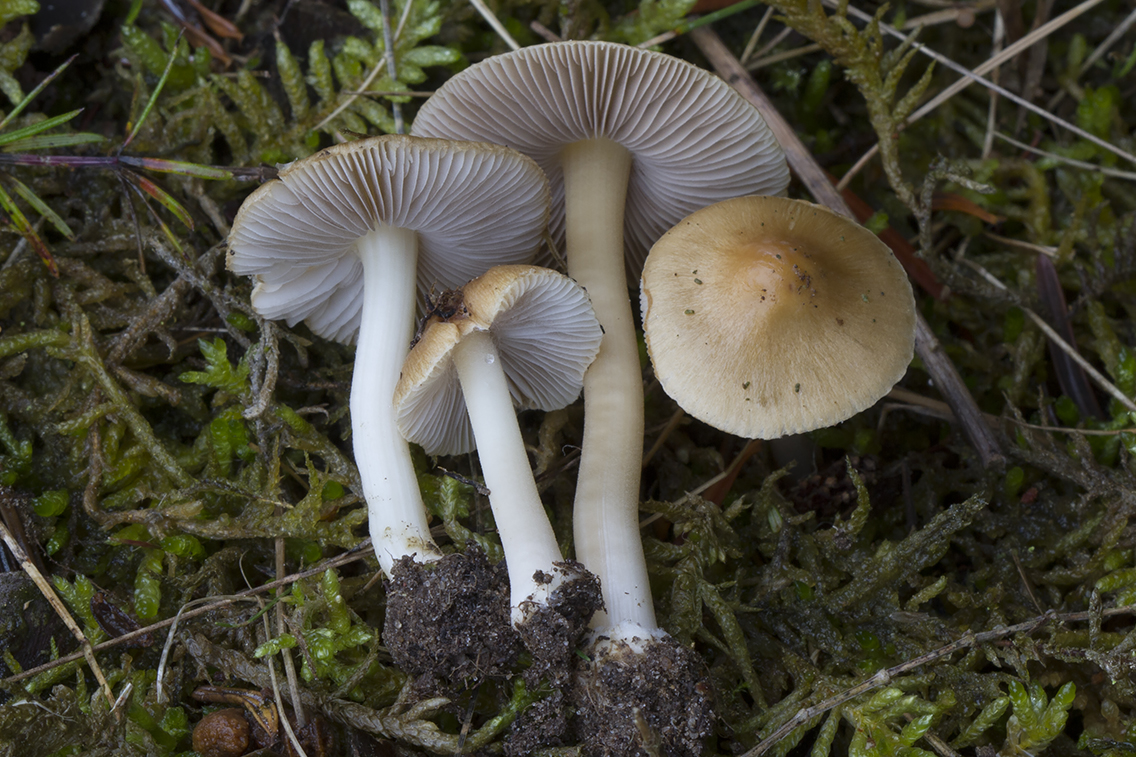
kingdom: Fungi
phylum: Basidiomycota
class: Agaricomycetes
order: Agaricales
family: Inocybaceae
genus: Inocybe
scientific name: Inocybe mixtilis
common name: randknoldet trævlhat
